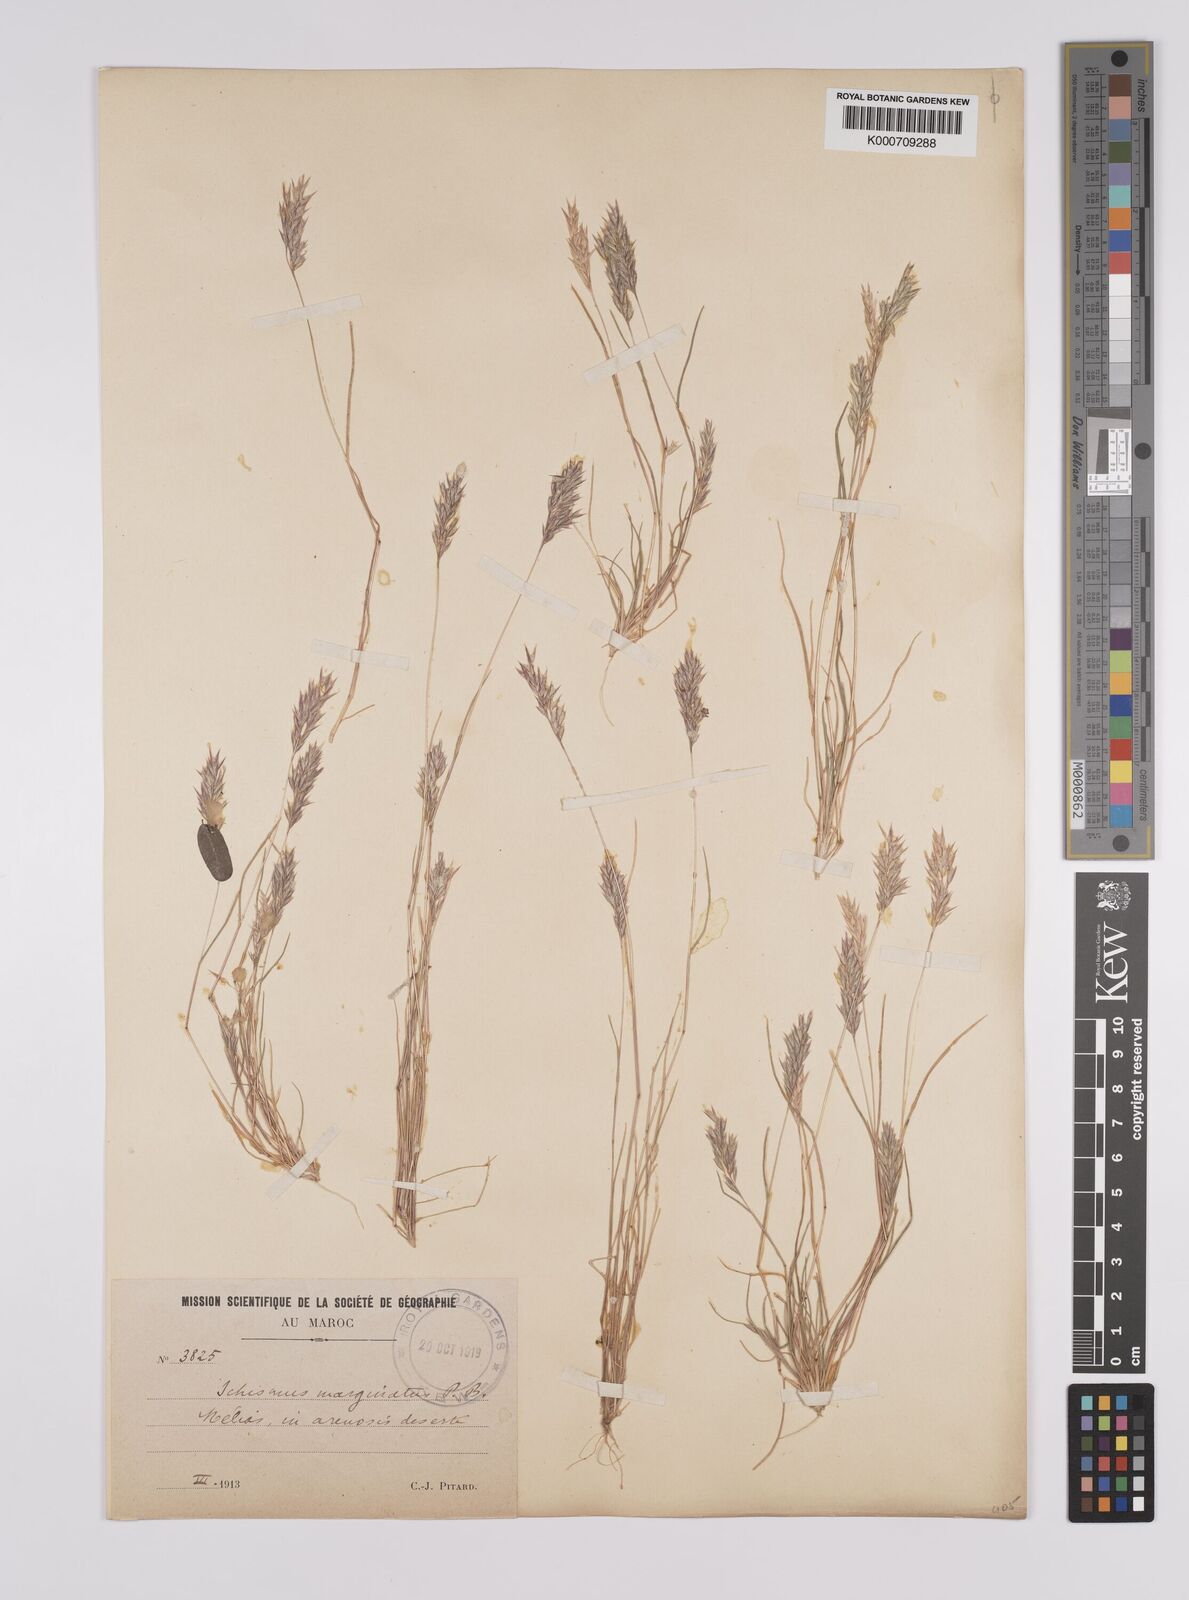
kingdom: Plantae
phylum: Tracheophyta
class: Liliopsida
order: Poales
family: Poaceae
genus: Schismus
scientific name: Schismus barbatus
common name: Kelch-grass
